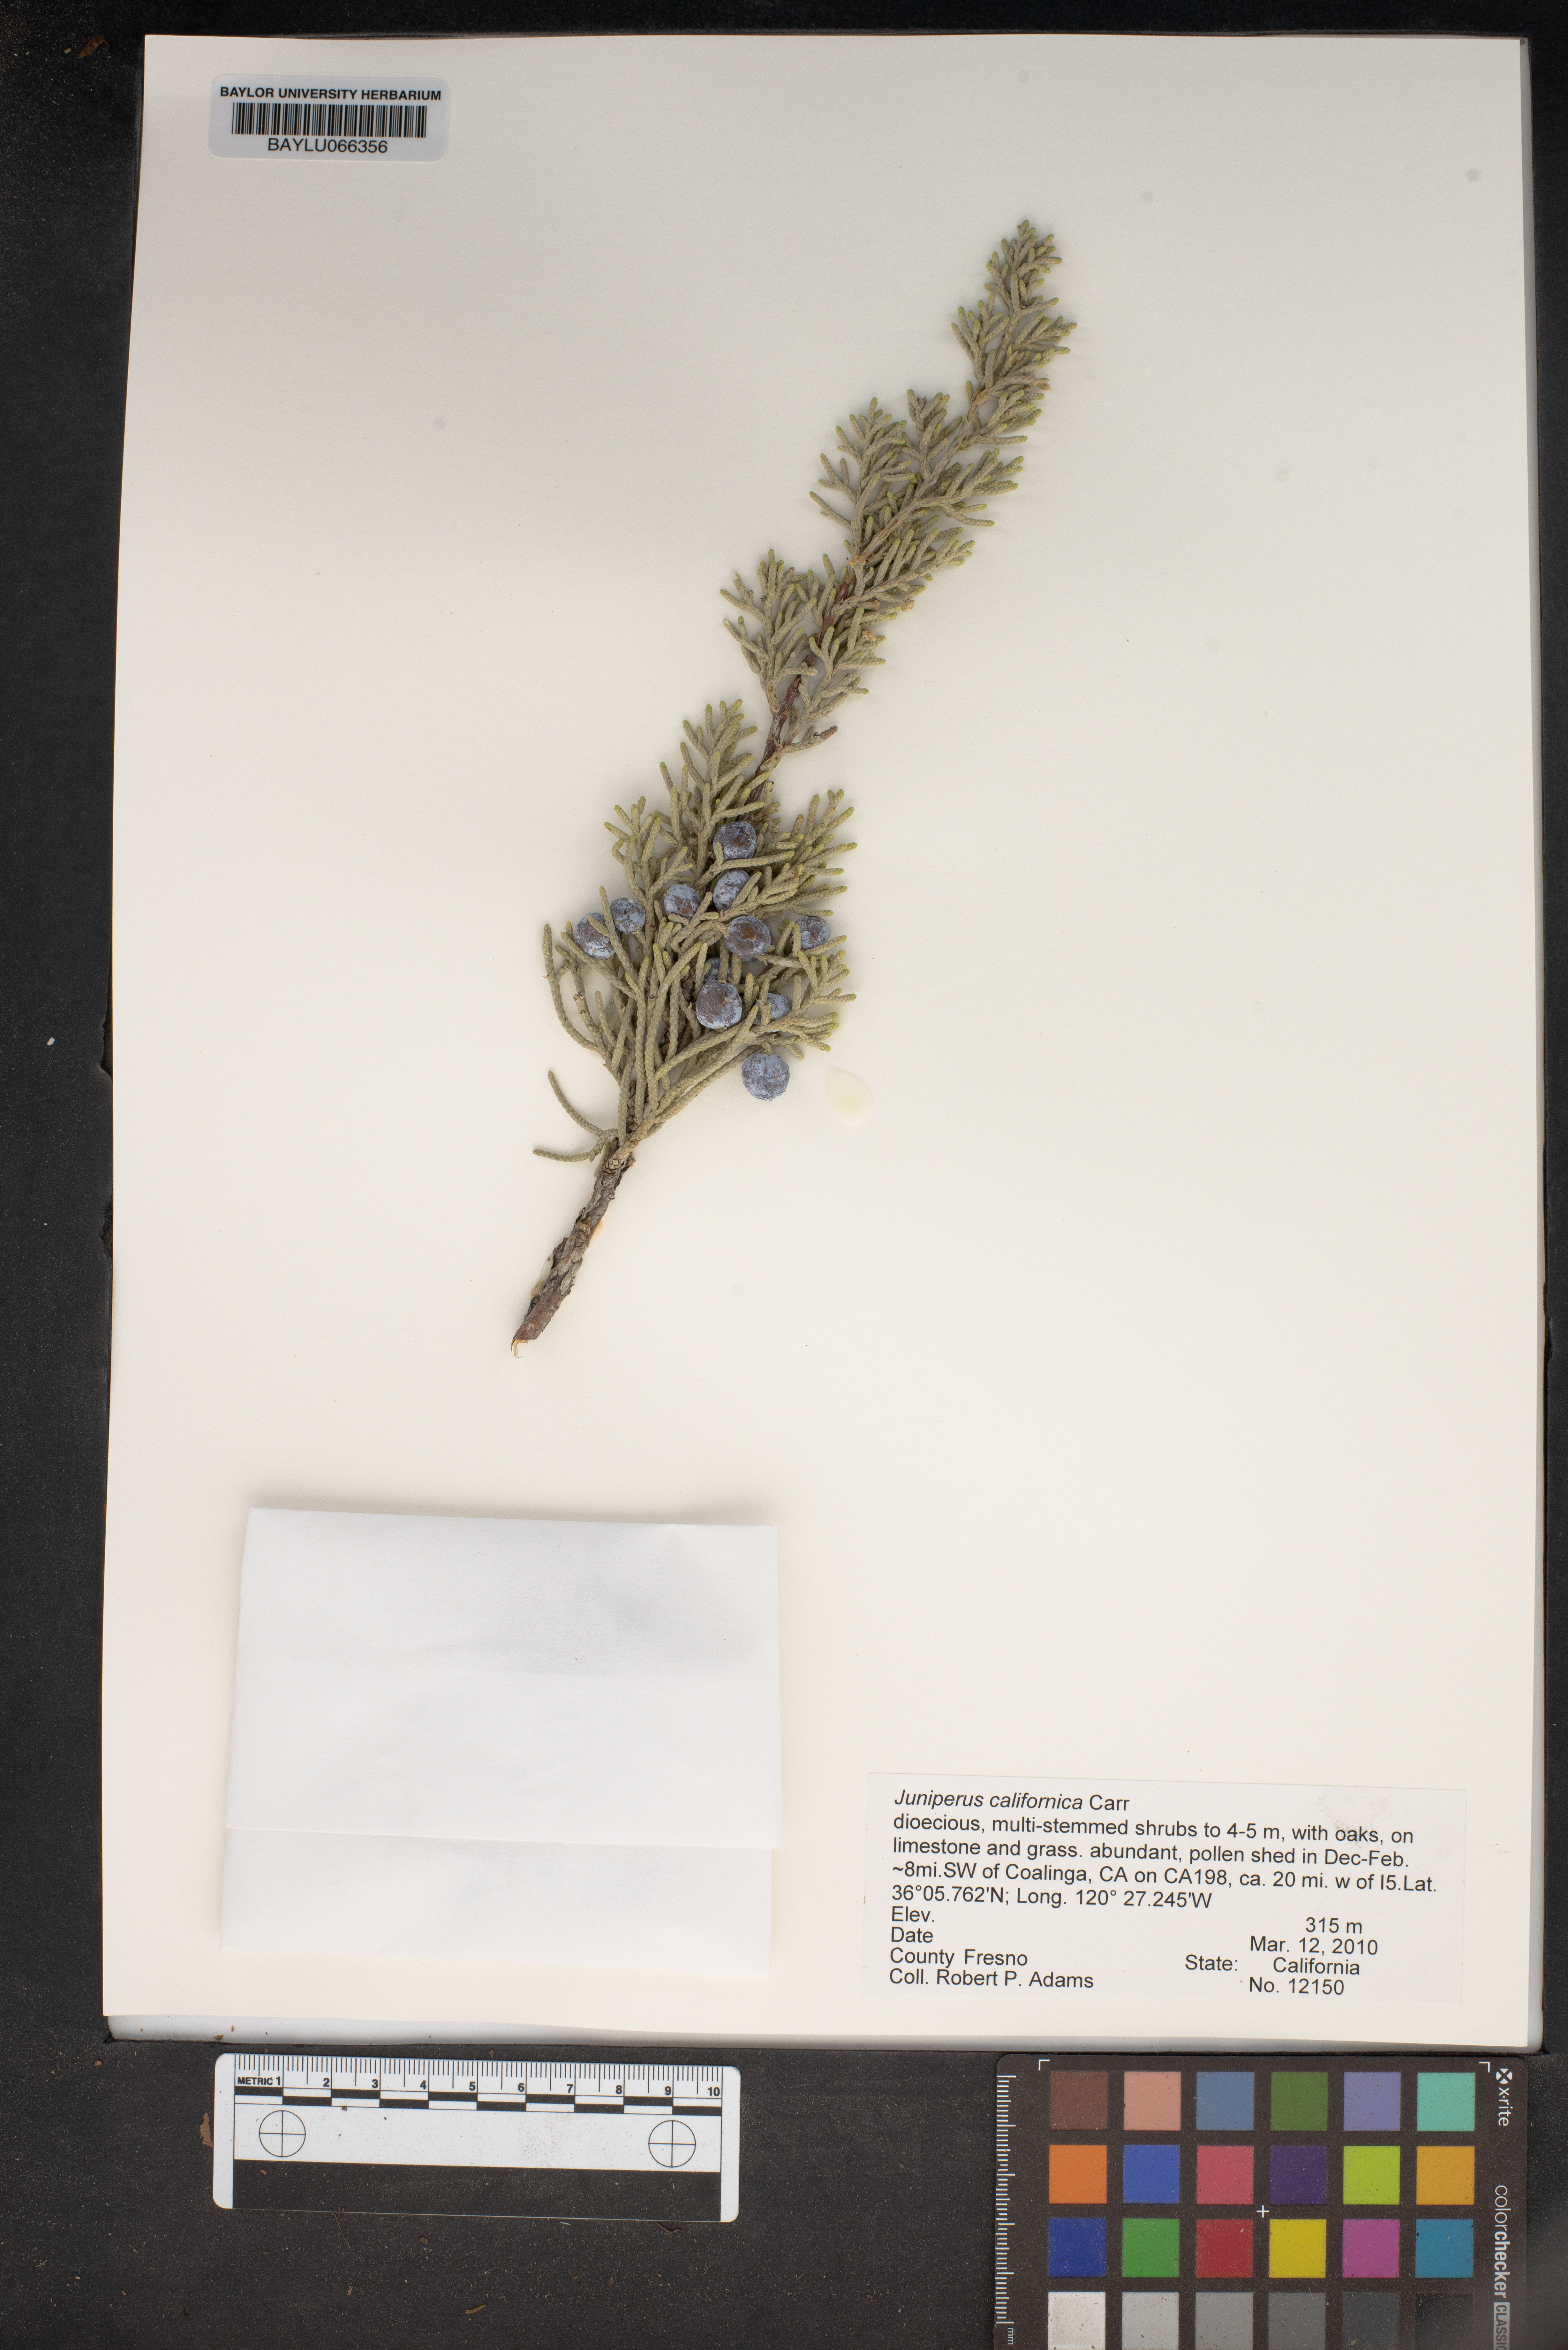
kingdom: Plantae
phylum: Tracheophyta
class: Pinopsida
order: Pinales
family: Cupressaceae
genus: Juniperus
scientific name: Juniperus californica
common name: California juniper
